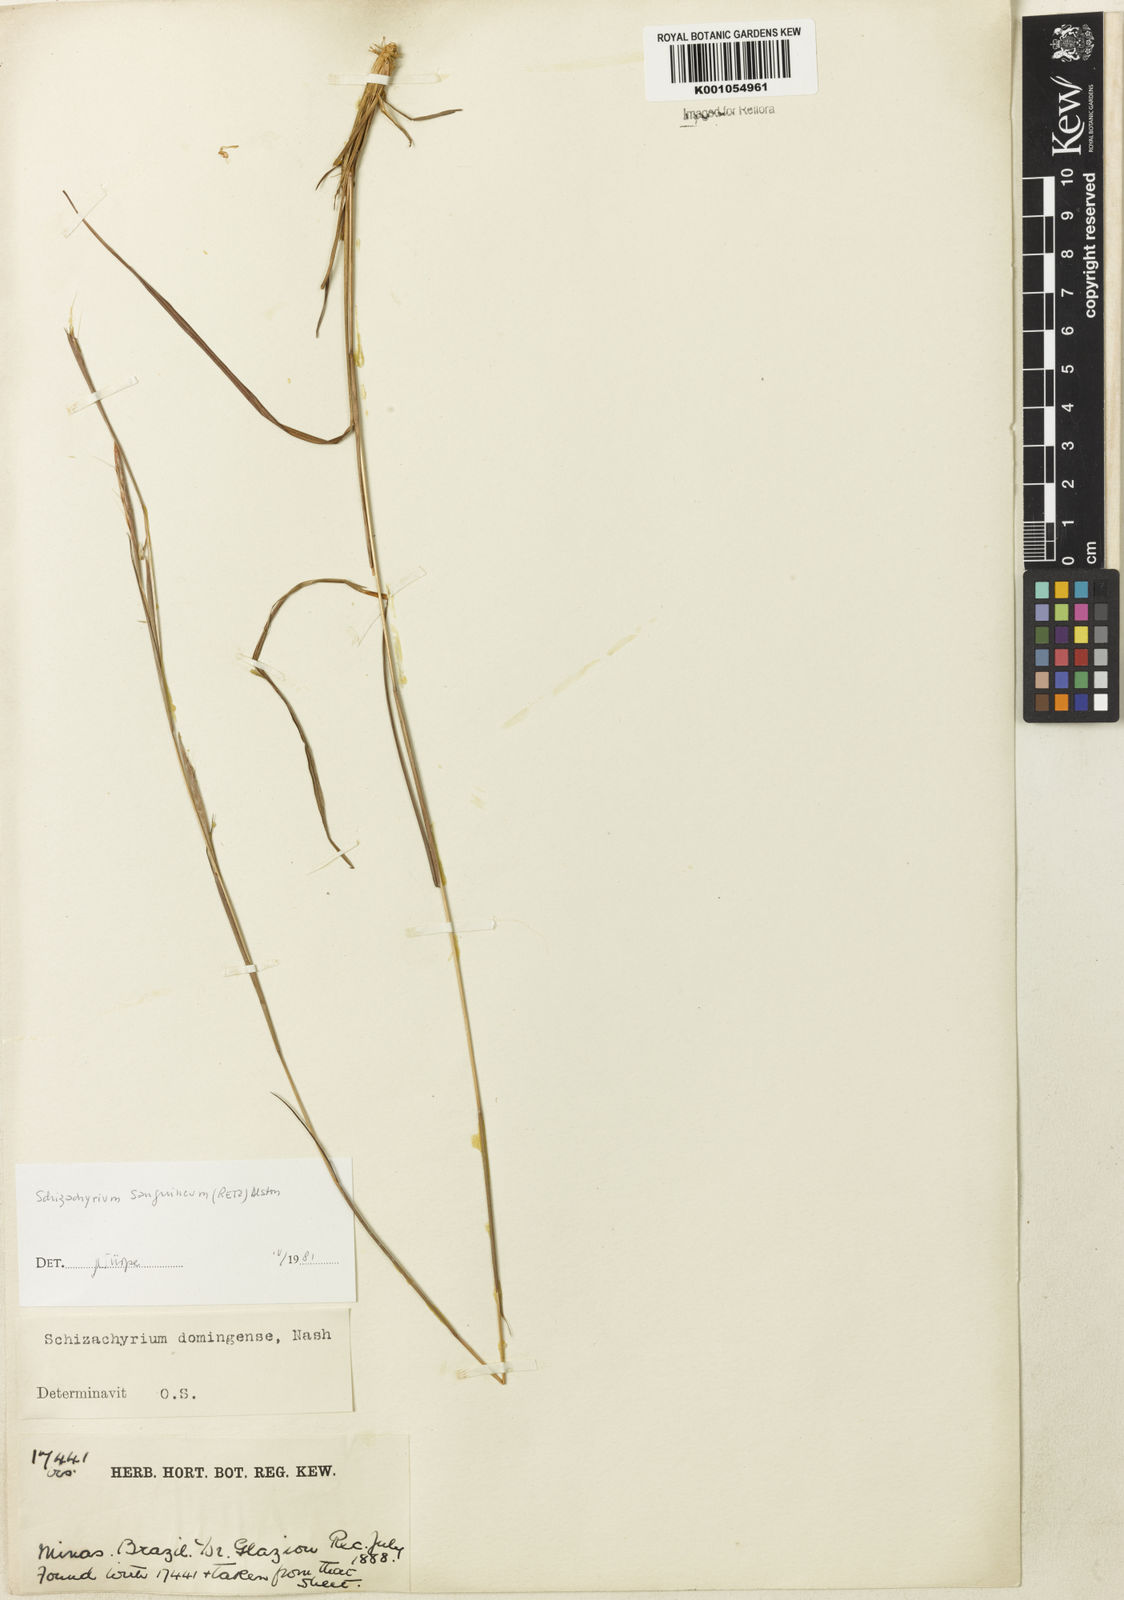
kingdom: Plantae
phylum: Tracheophyta
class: Liliopsida
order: Poales
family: Poaceae
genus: Schizachyrium
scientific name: Schizachyrium sanguineum
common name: Crimson bluestem
